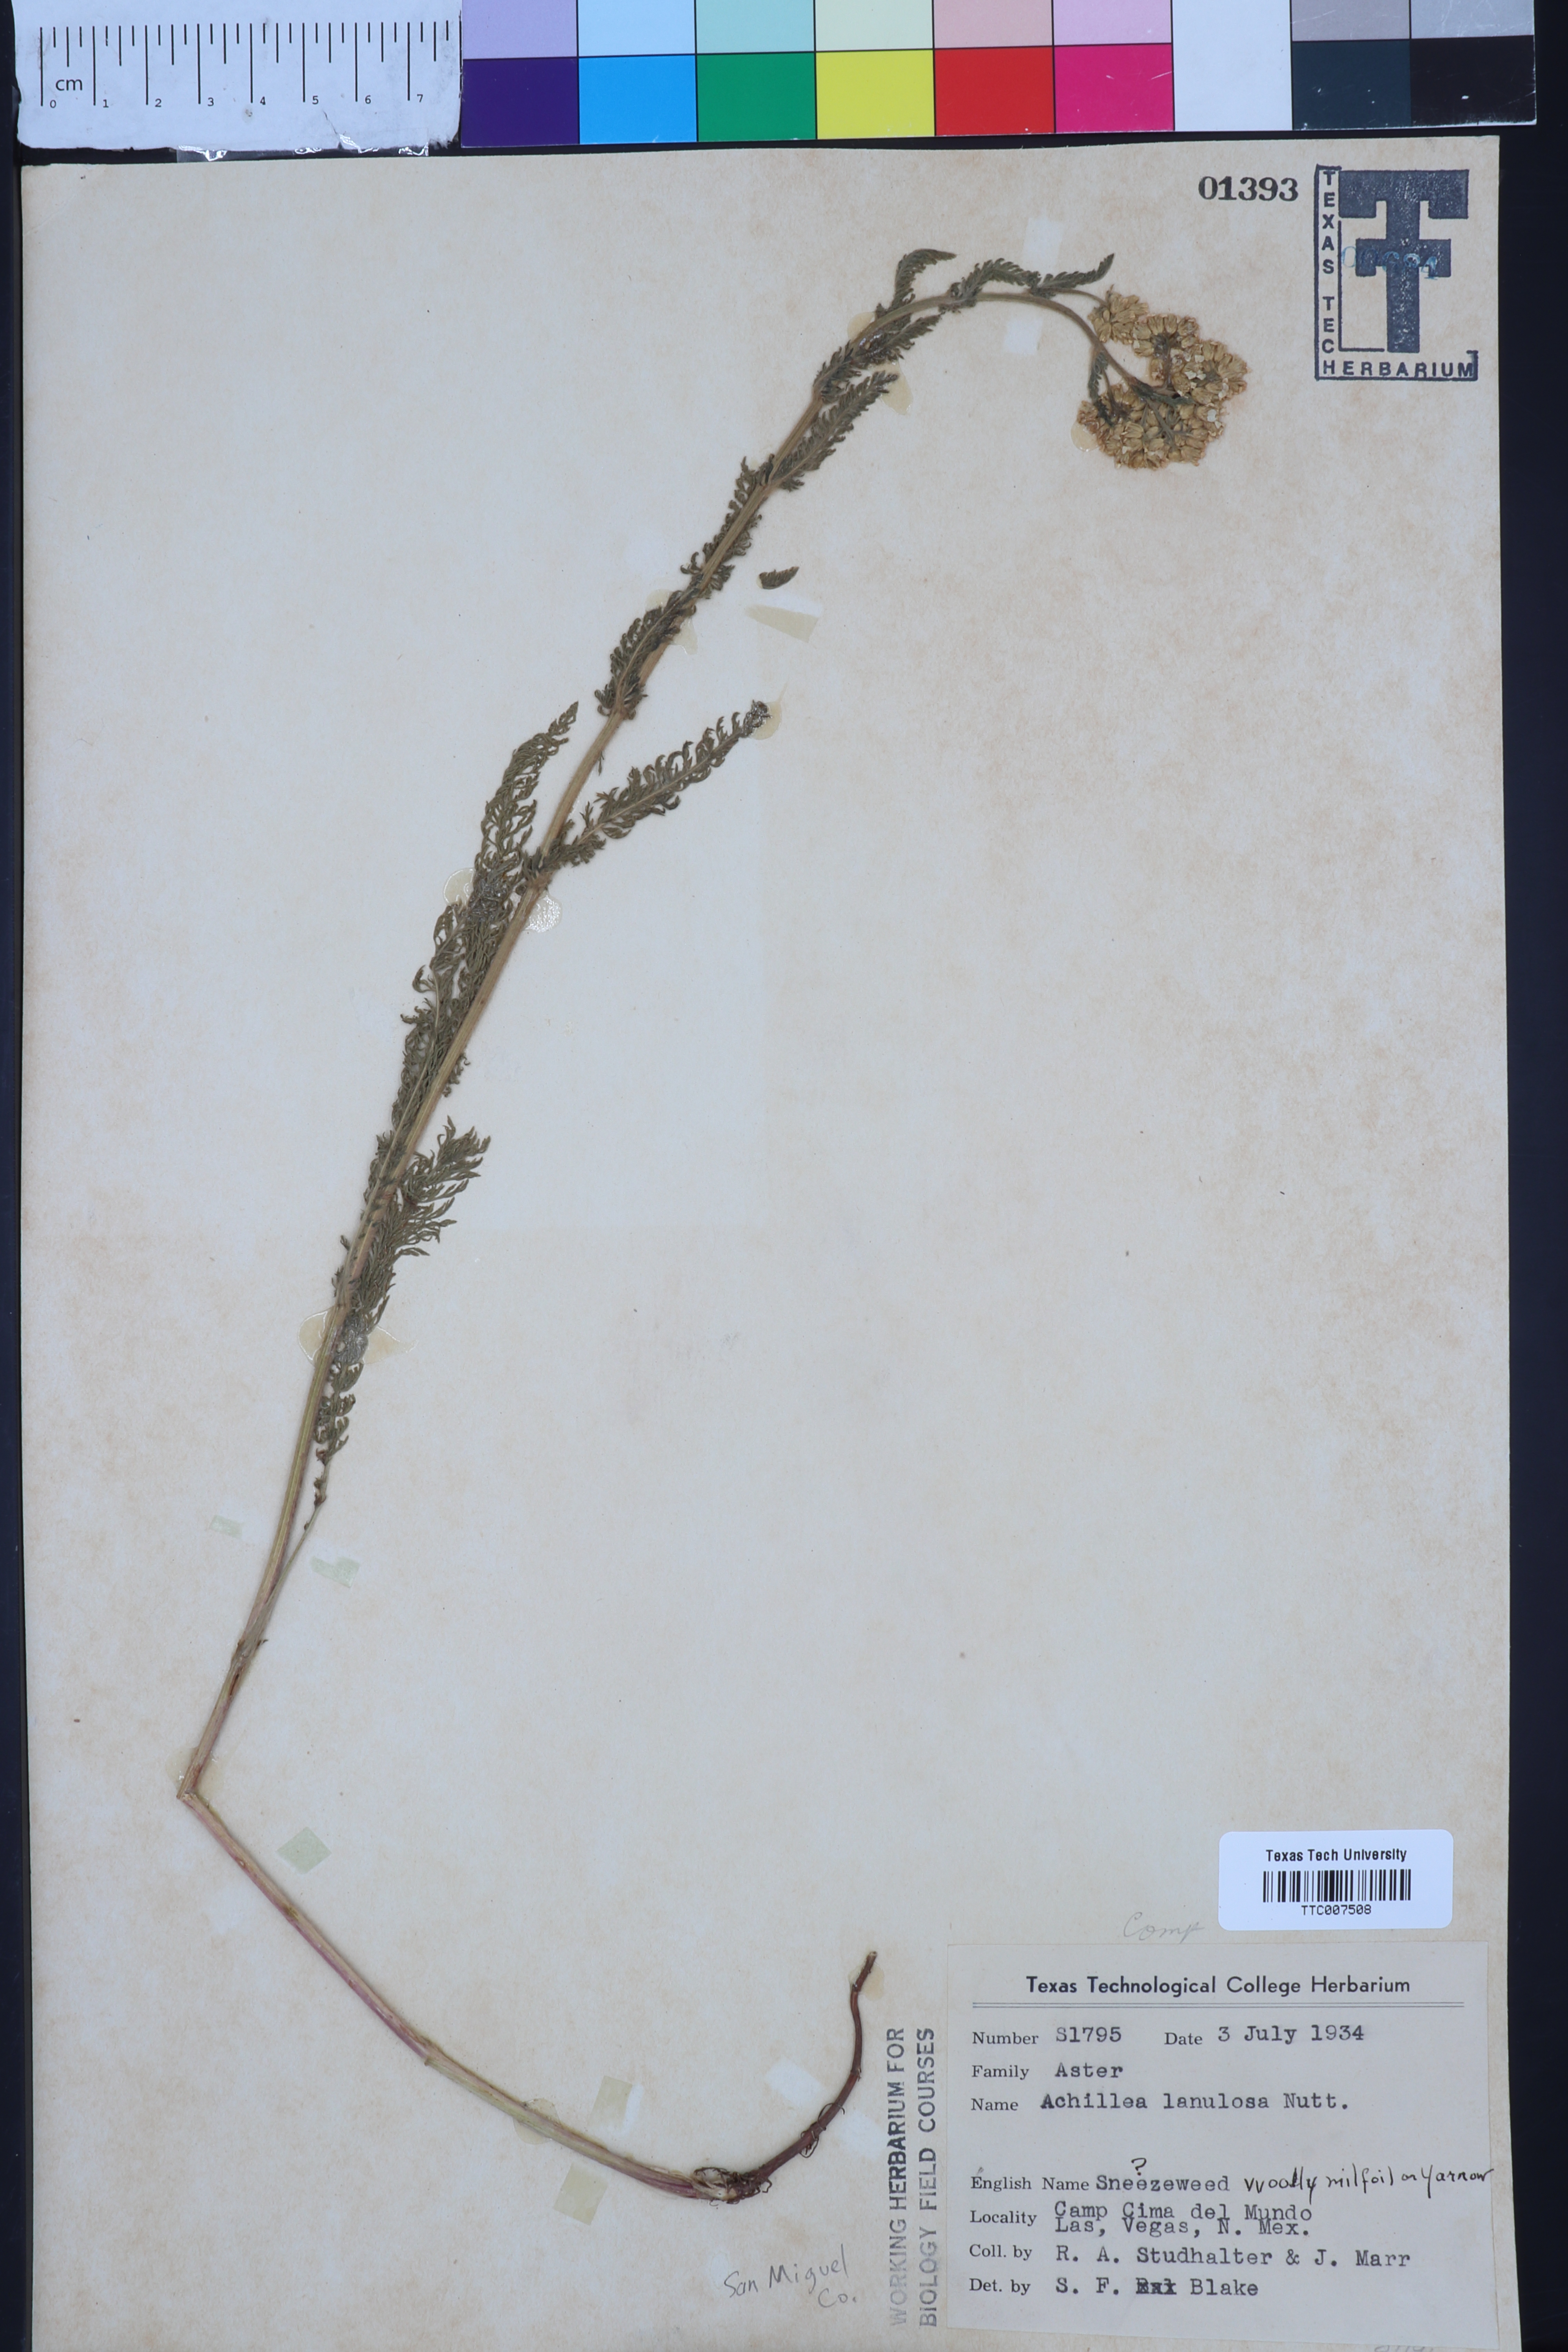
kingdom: Plantae
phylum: Tracheophyta
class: Magnoliopsida
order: Asterales
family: Asteraceae
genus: Achillea
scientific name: Achillea millefolium
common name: Yarrow
